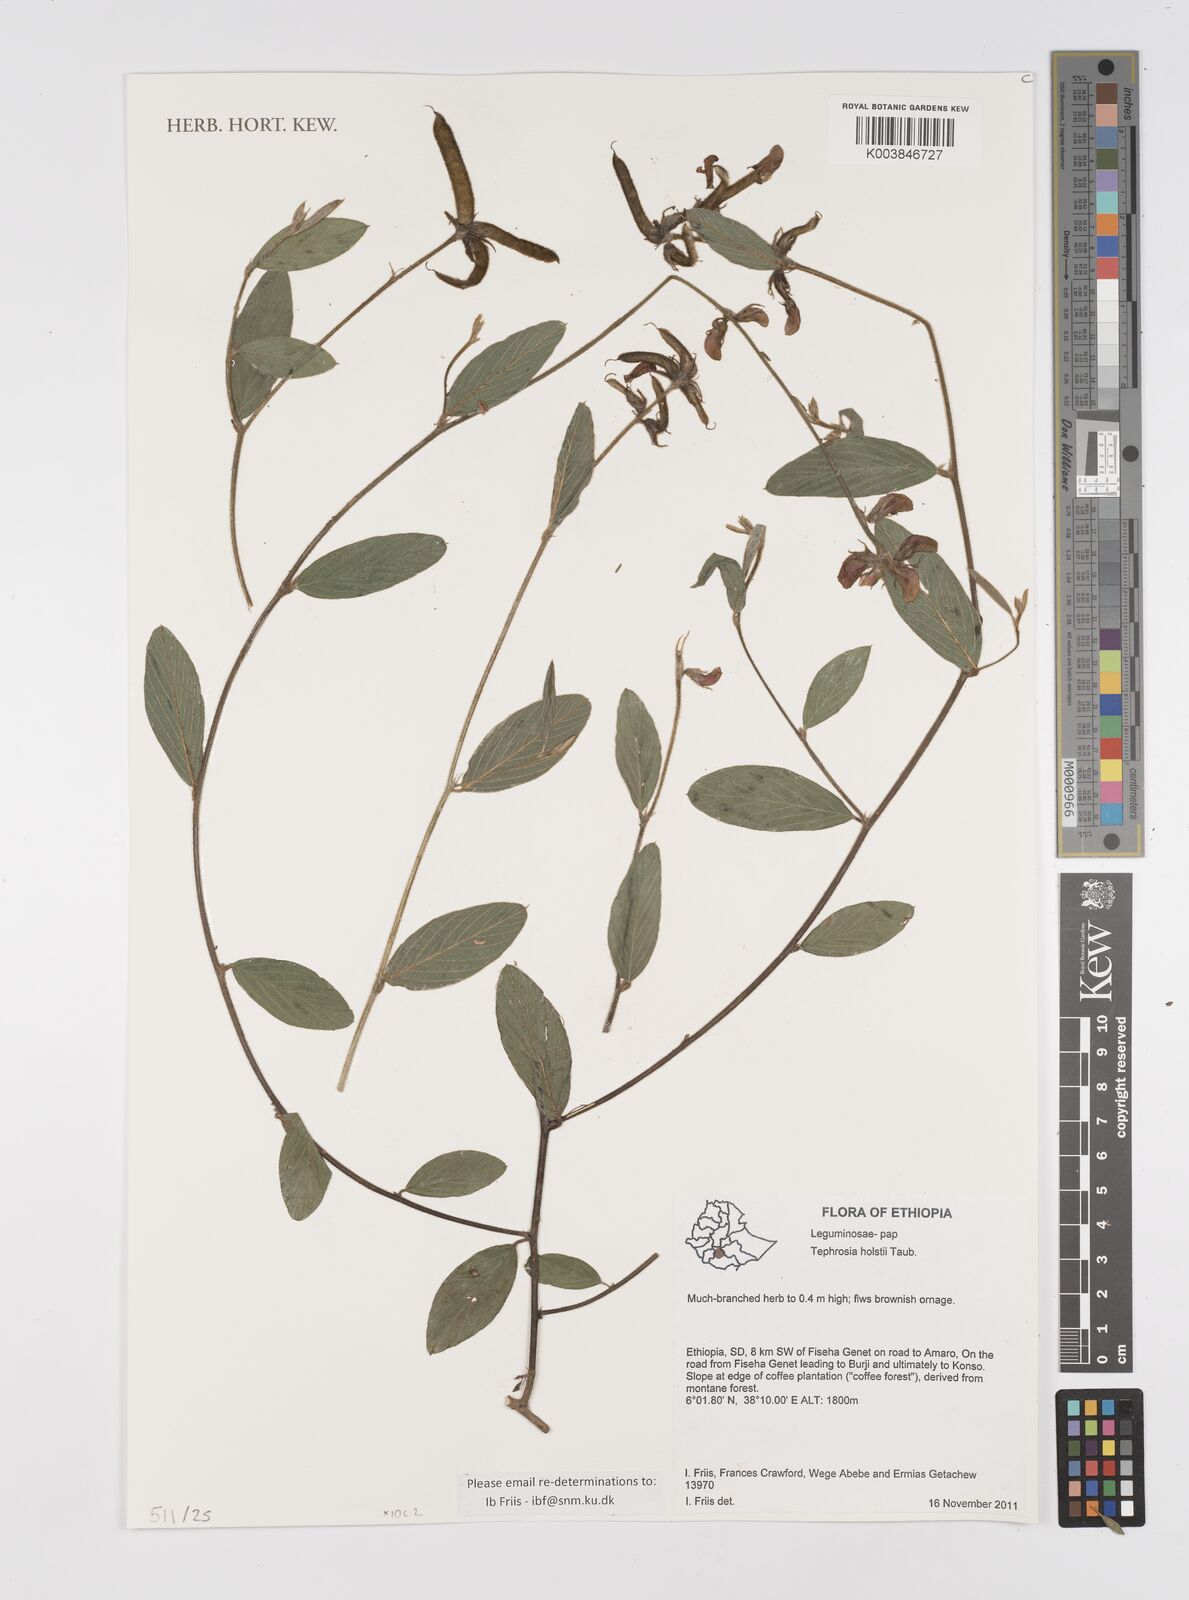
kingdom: Plantae
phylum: Tracheophyta
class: Magnoliopsida
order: Fabales
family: Fabaceae
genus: Tephrosia
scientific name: Tephrosia holstii
